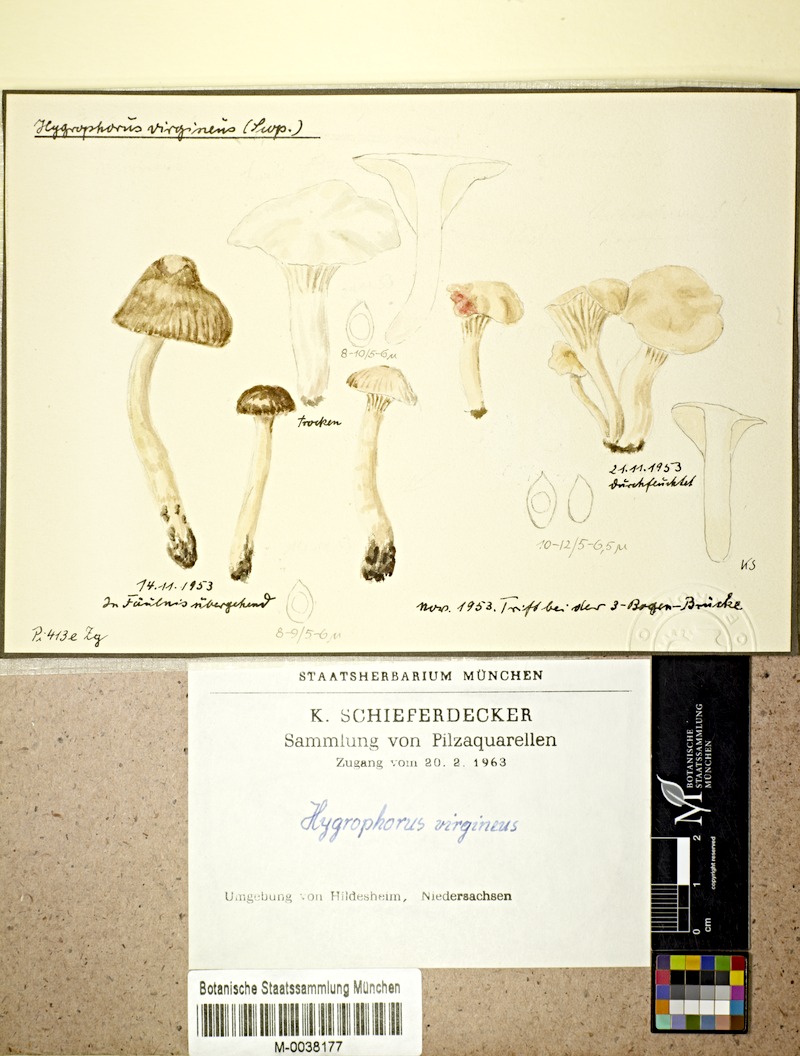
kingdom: Fungi
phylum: Basidiomycota
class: Agaricomycetes
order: Agaricales
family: Hygrophoraceae
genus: Cuphophyllus
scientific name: Cuphophyllus virgineus
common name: Snowy waxcap
